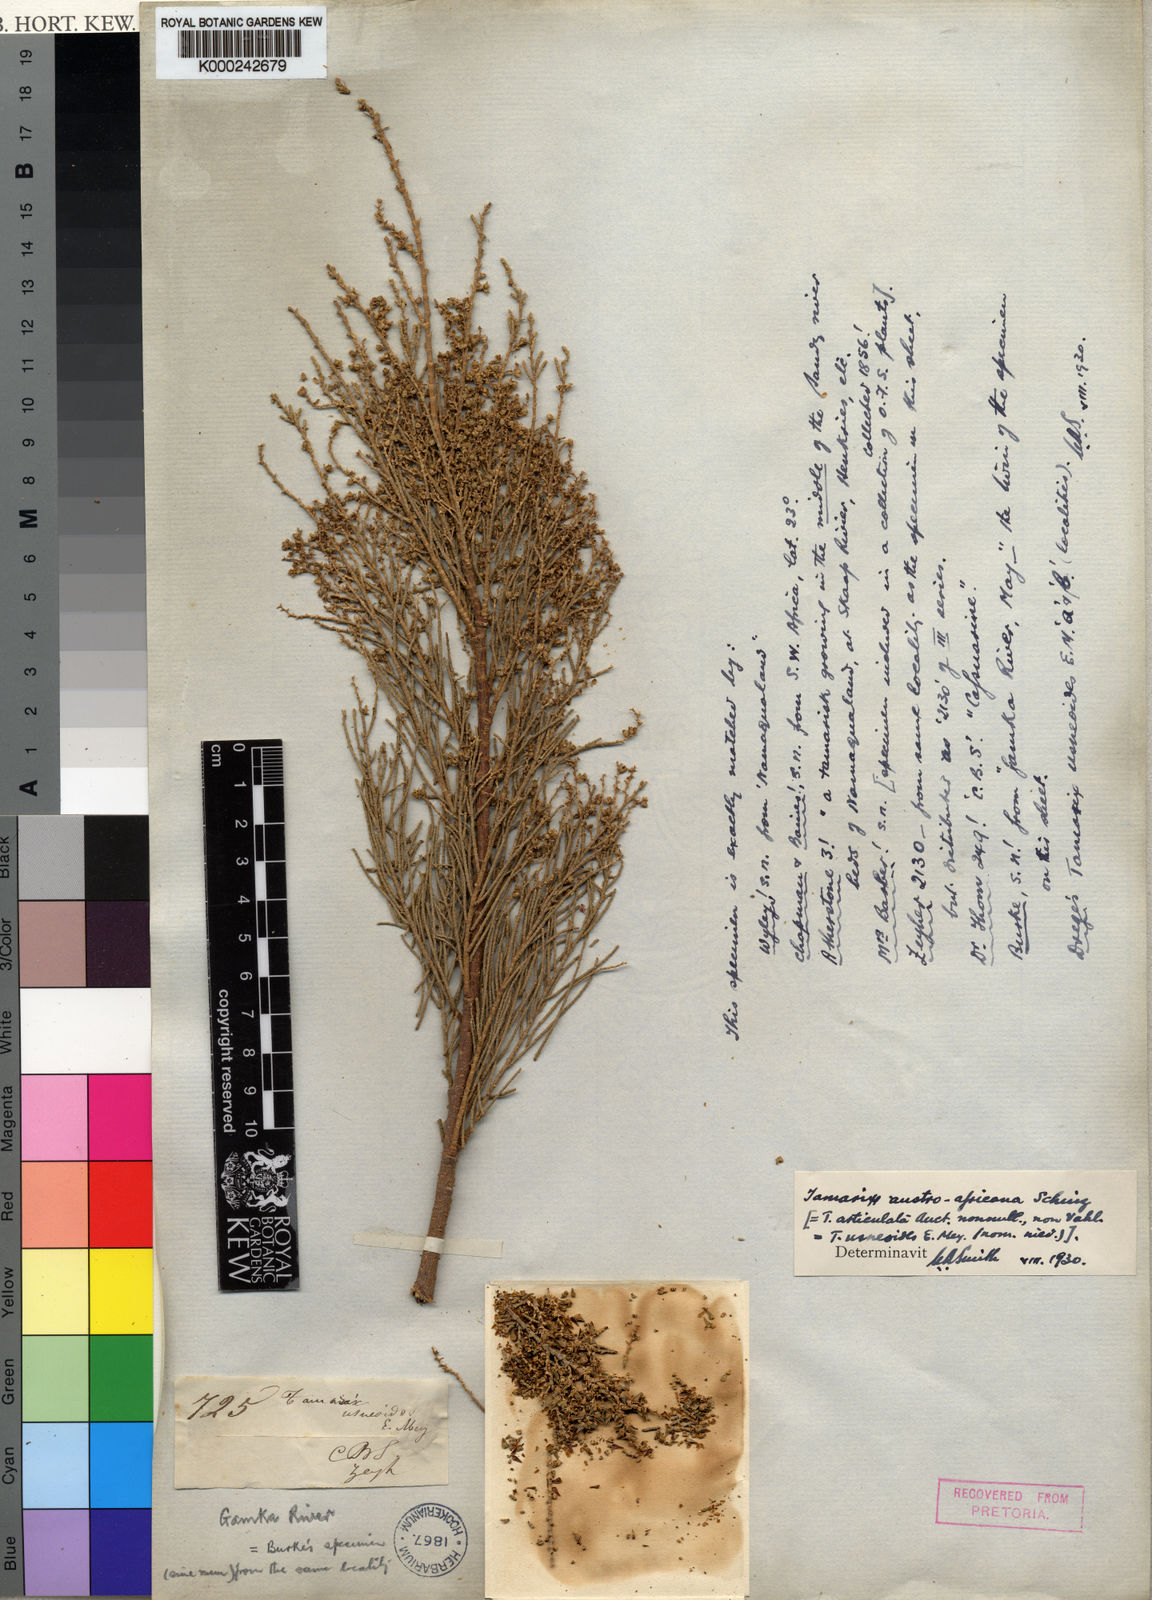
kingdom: Plantae
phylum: Tracheophyta
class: Magnoliopsida
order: Caryophyllales
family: Tamaricaceae
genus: Tamarix
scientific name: Tamarix usneoides
